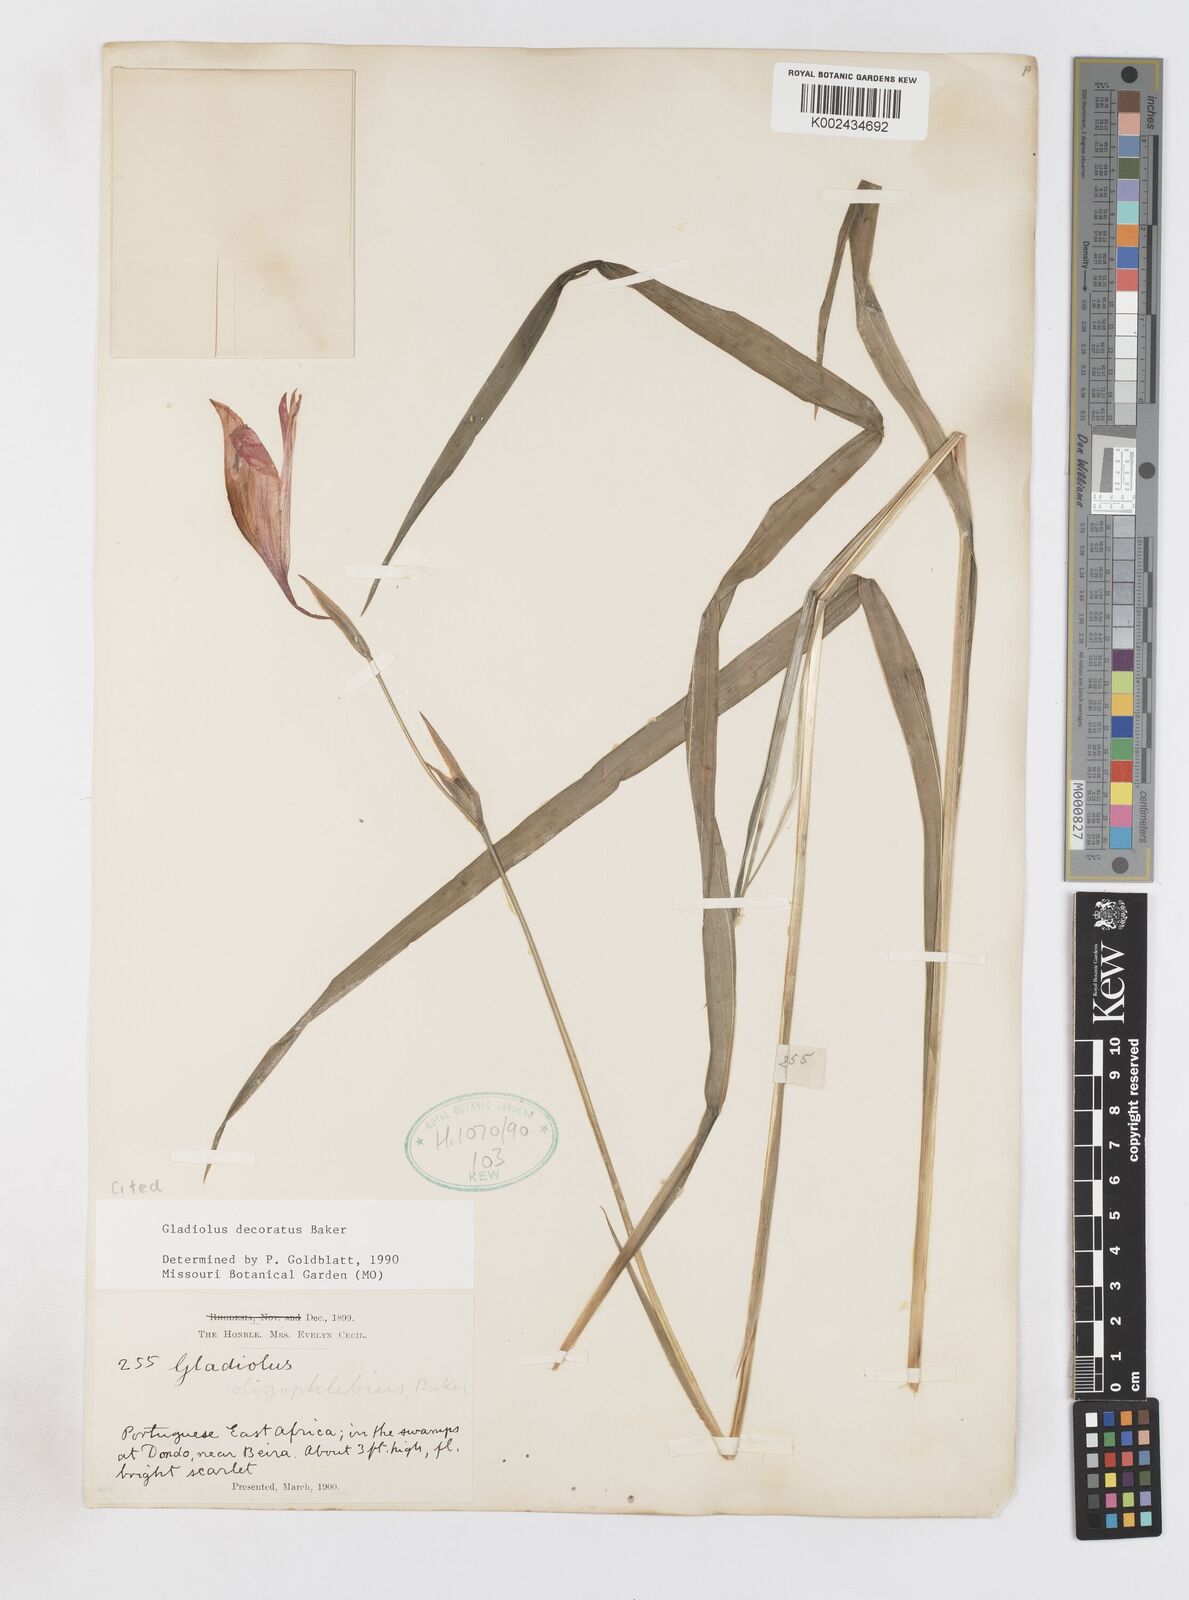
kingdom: Plantae
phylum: Tracheophyta
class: Liliopsida
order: Asparagales
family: Iridaceae
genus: Gladiolus
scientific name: Gladiolus decoratus
